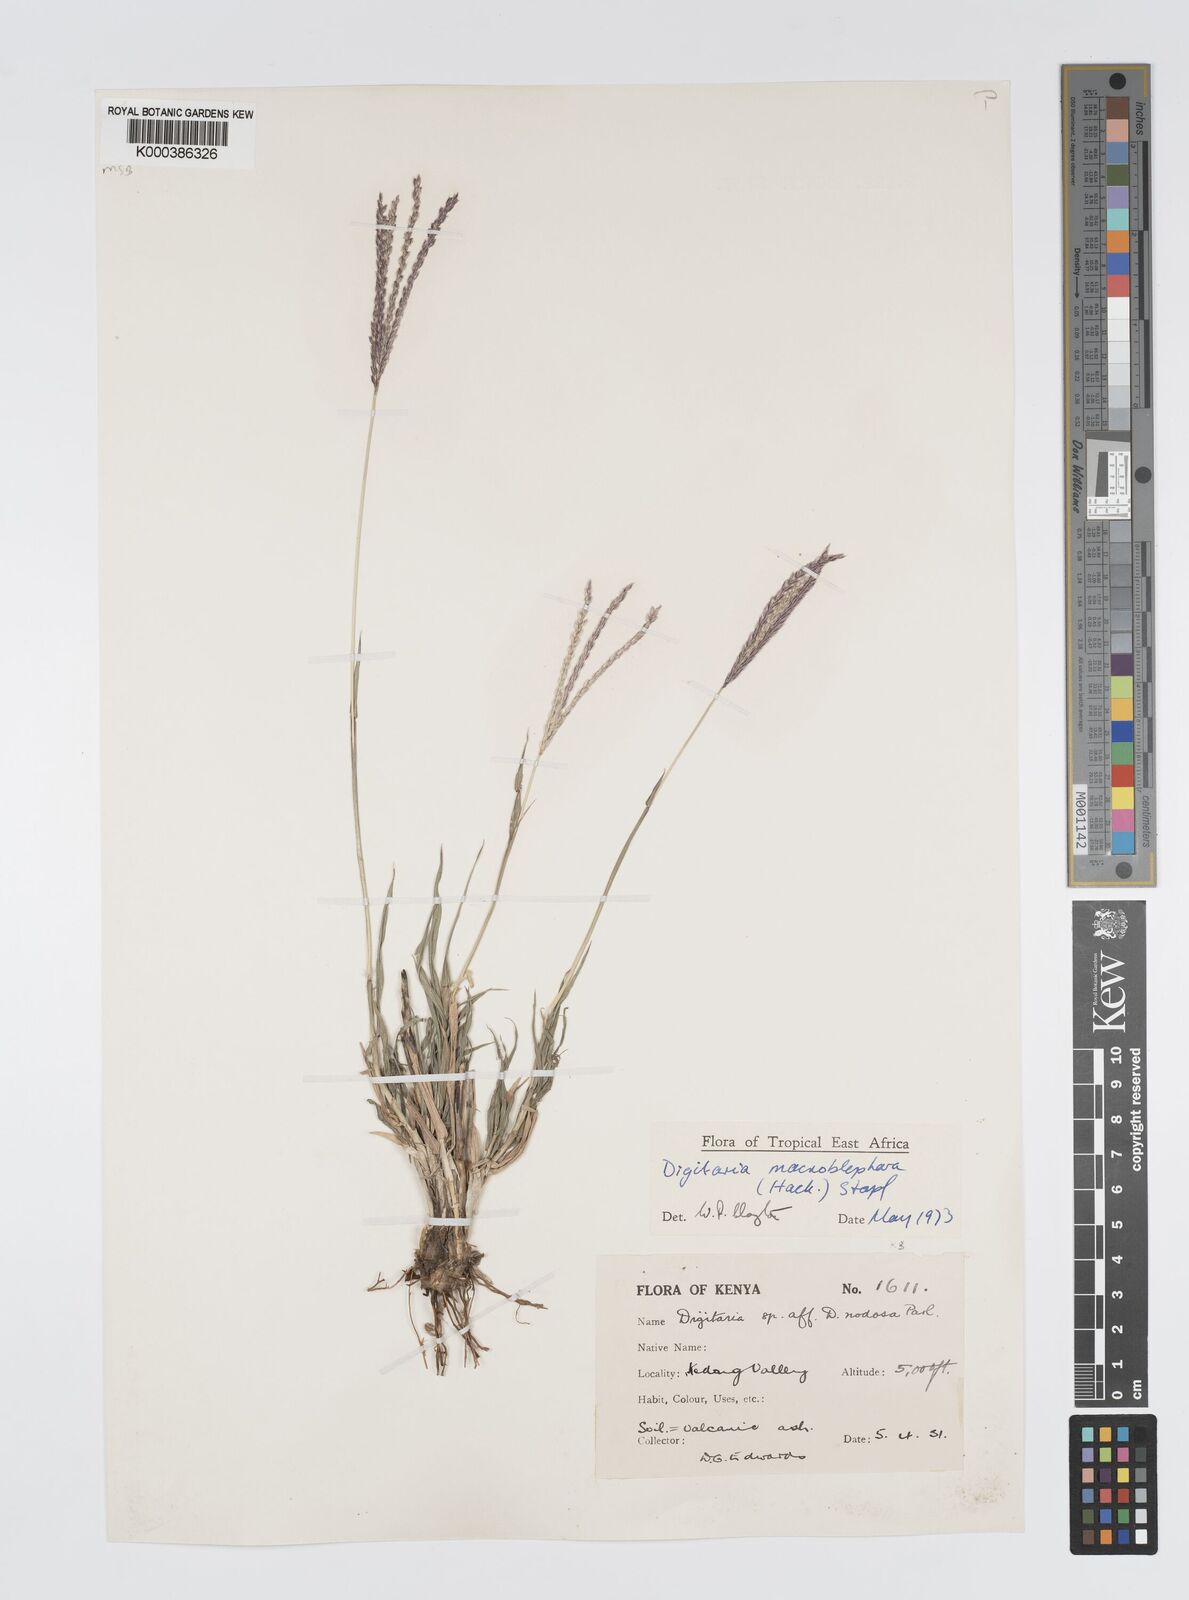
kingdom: Plantae
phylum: Tracheophyta
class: Liliopsida
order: Poales
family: Poaceae
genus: Digitaria
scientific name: Digitaria macroblephara
